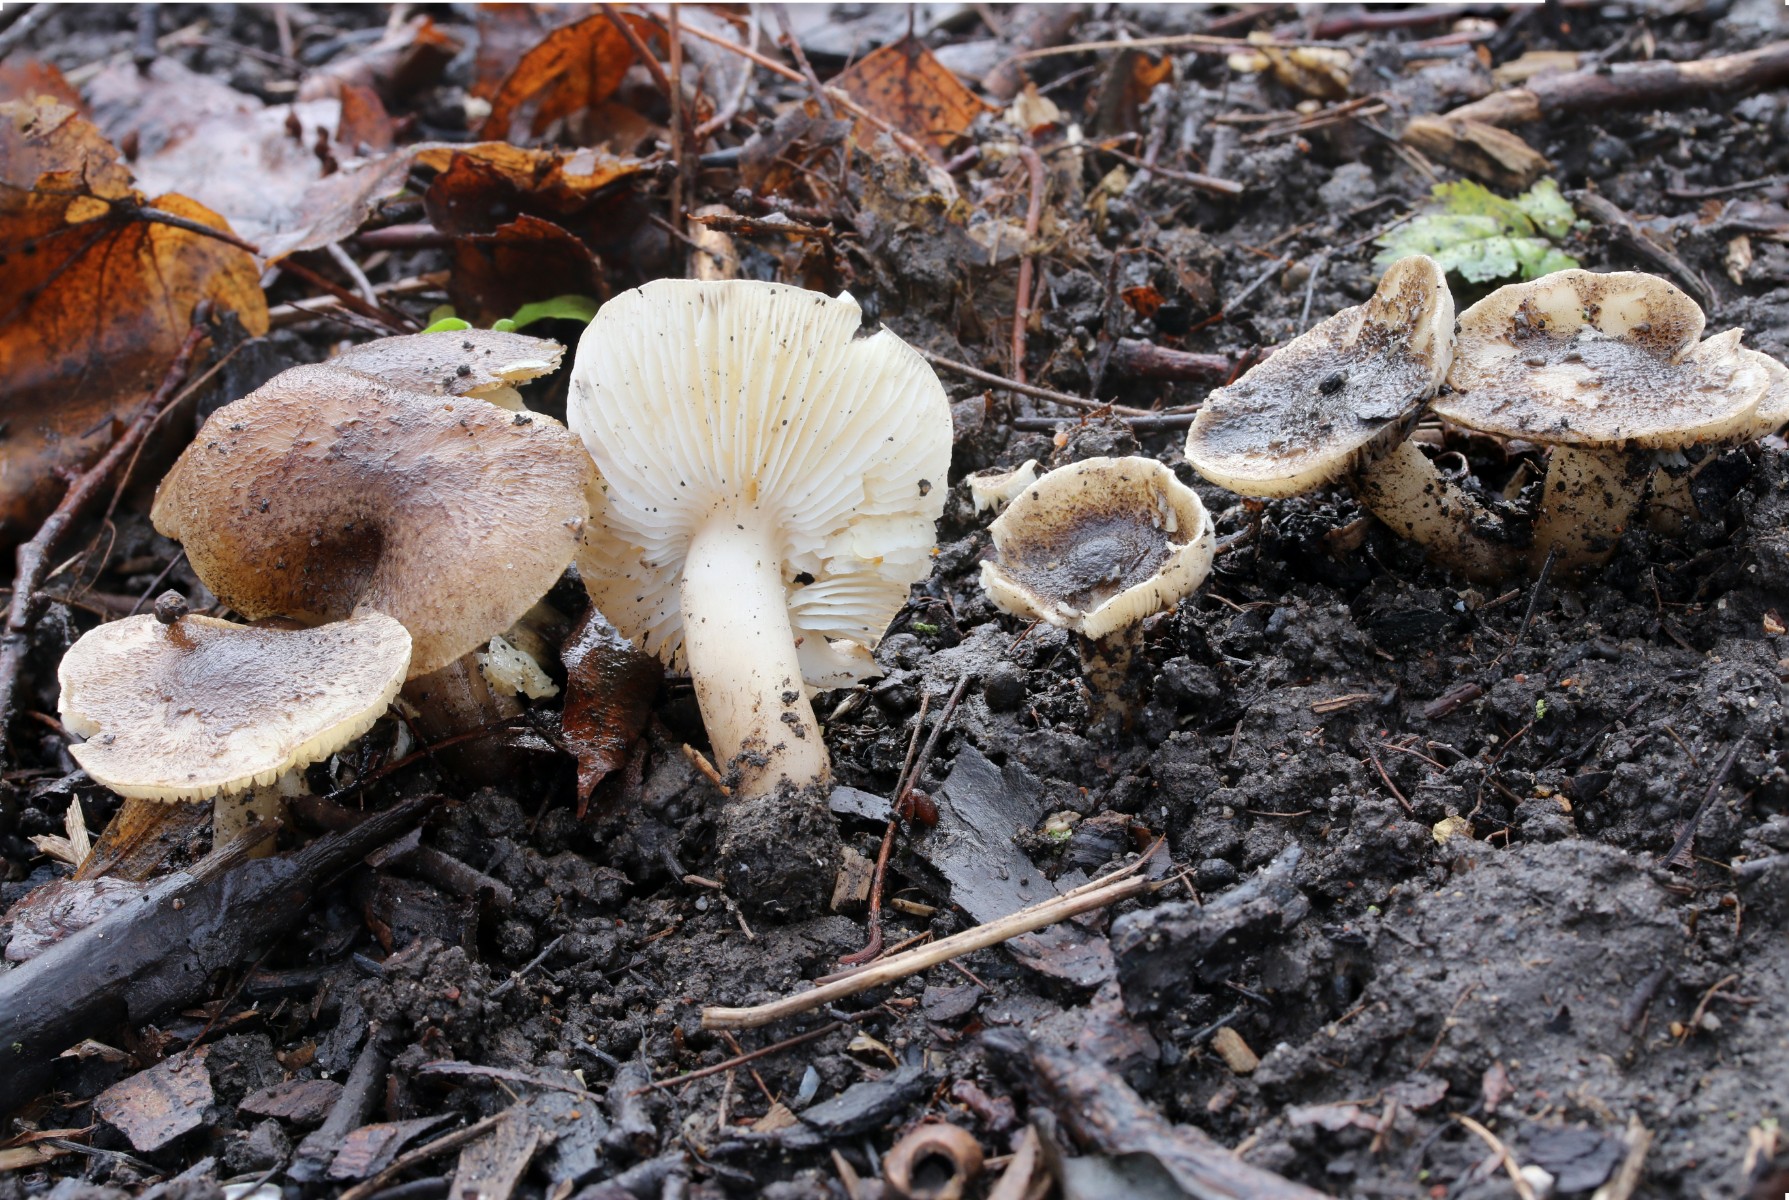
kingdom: Fungi
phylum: Basidiomycota
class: Agaricomycetes
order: Agaricales
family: Tricholomataceae
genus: Tricholoma
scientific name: Tricholoma scalpturatum
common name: gulplettet ridderhat
